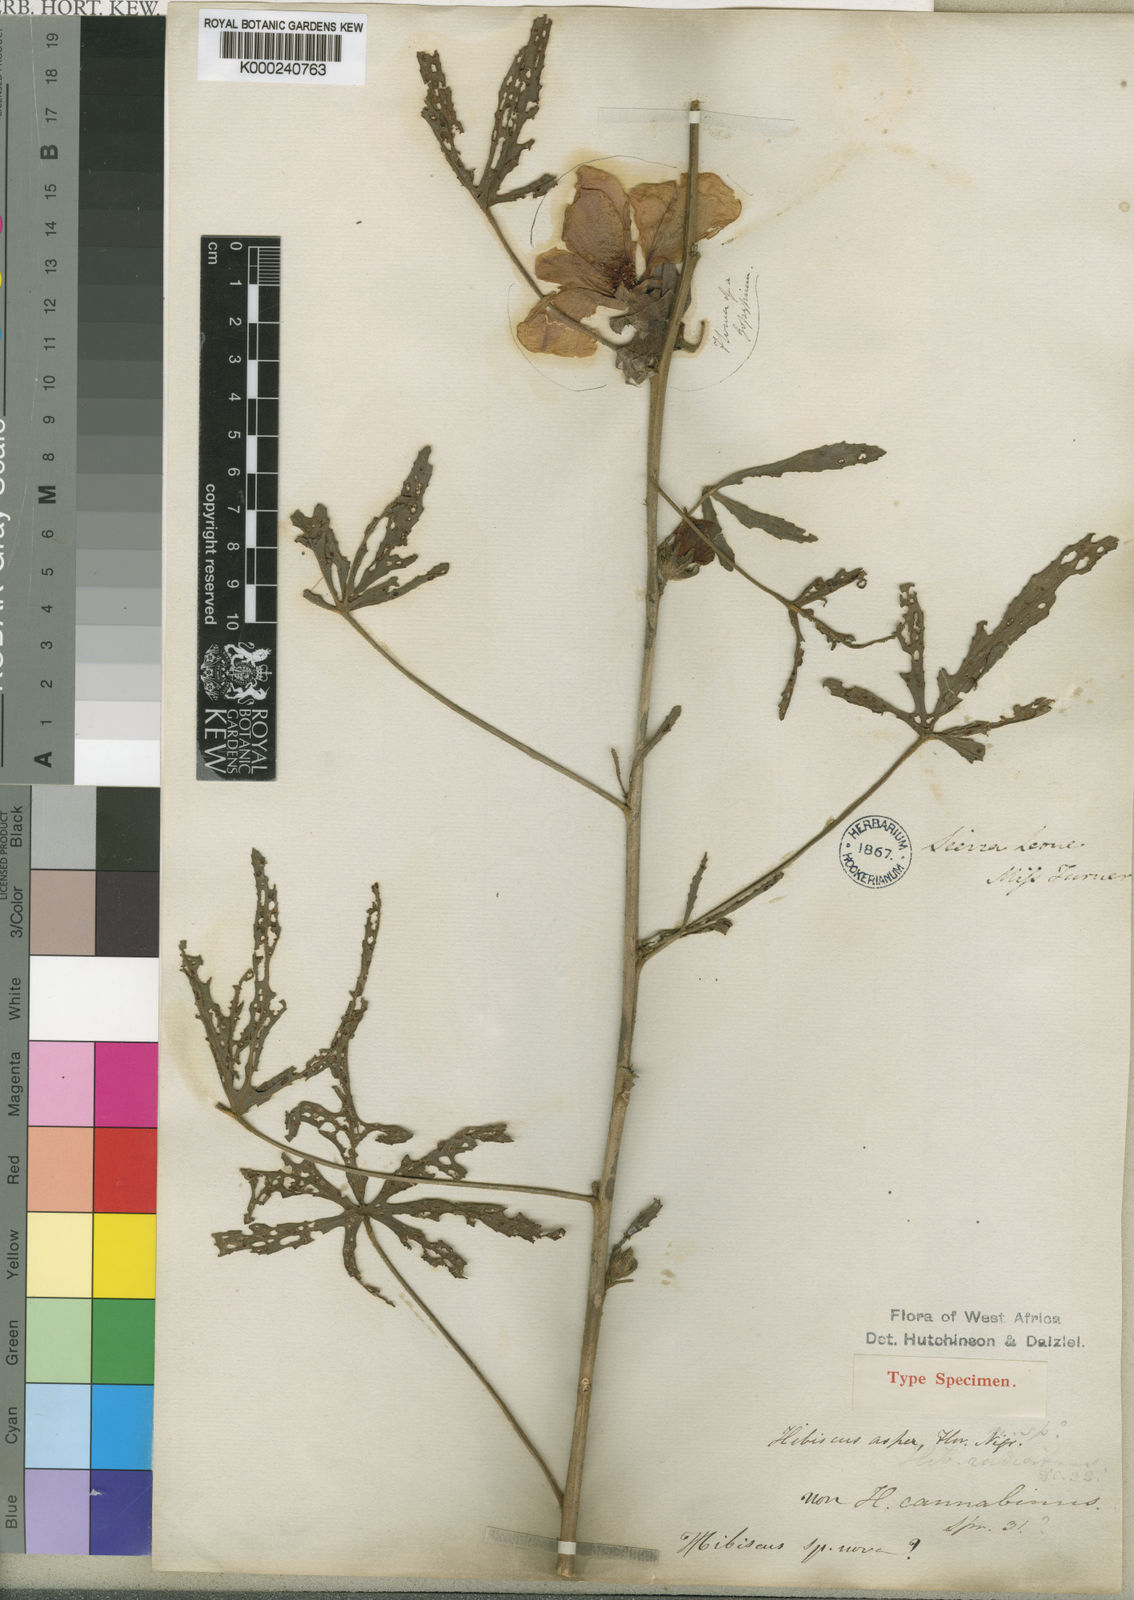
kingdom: Plantae
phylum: Tracheophyta
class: Magnoliopsida
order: Malvales
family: Malvaceae
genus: Hibiscus
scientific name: Hibiscus
